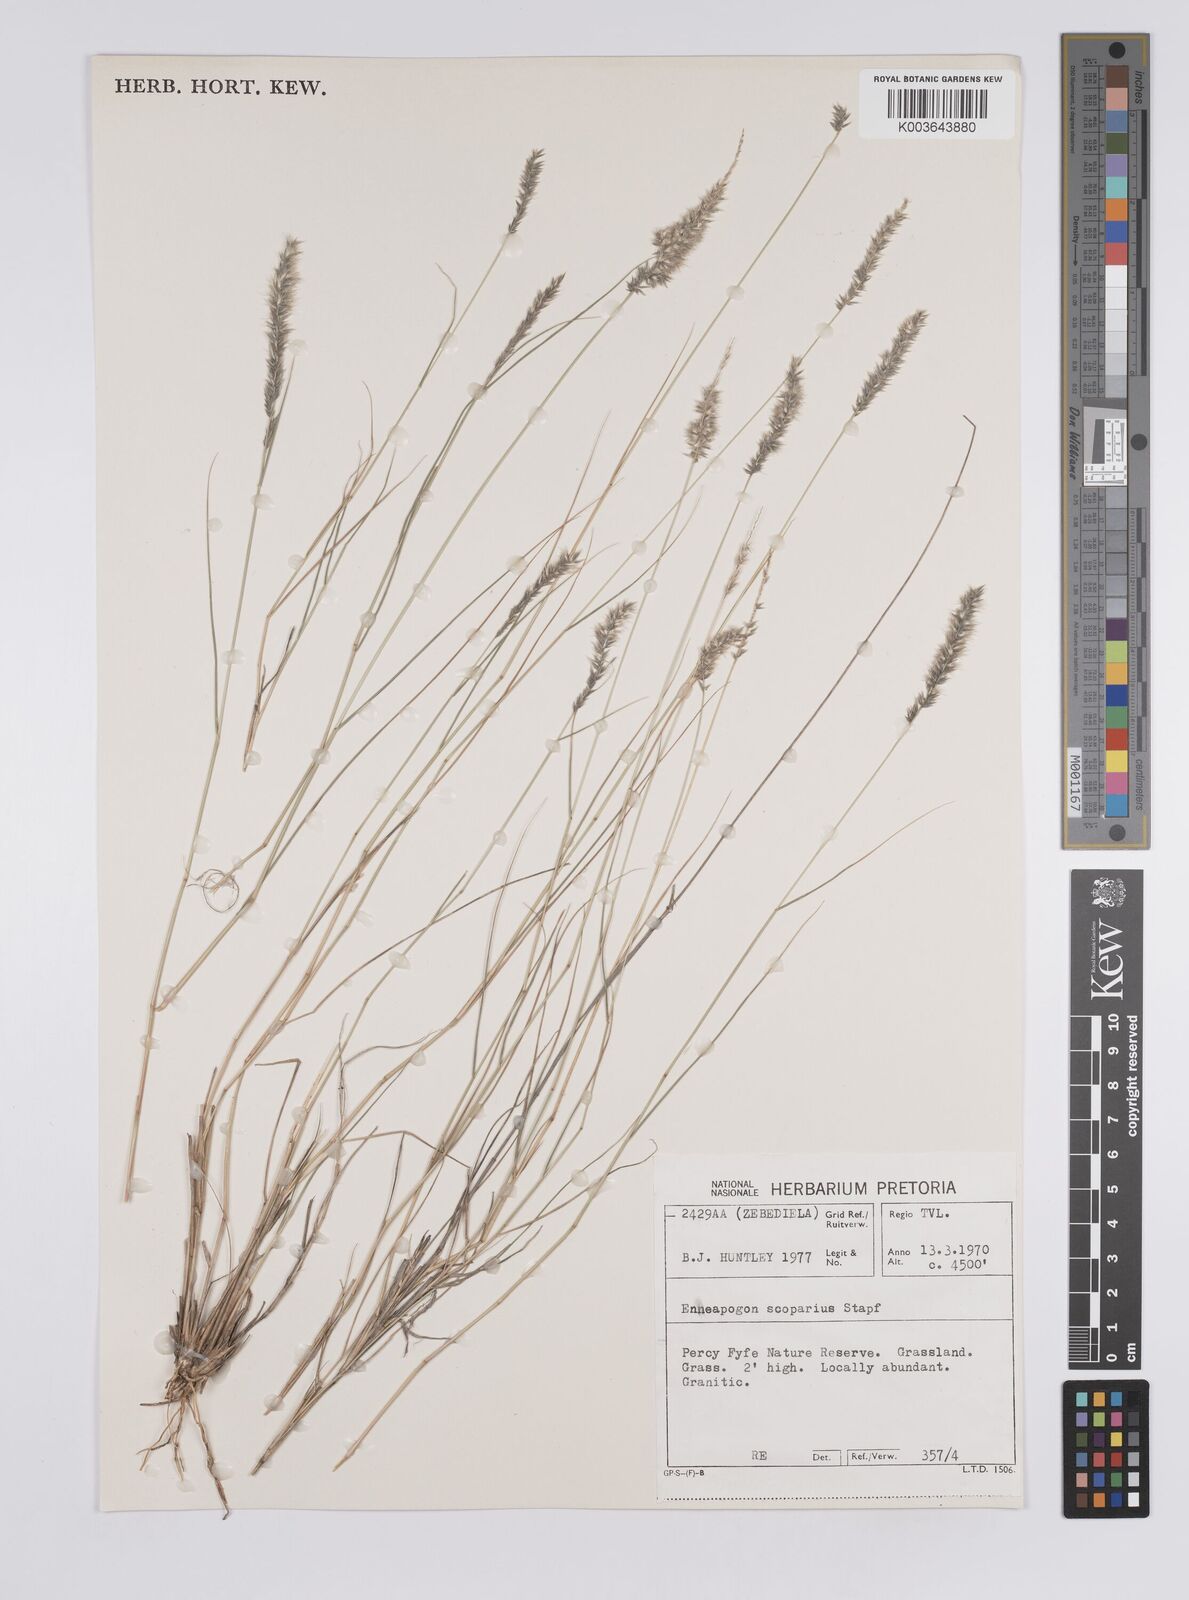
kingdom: Plantae
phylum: Tracheophyta
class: Liliopsida
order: Poales
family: Poaceae
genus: Enneapogon
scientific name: Enneapogon desvauxii
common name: Feather pappus grass
